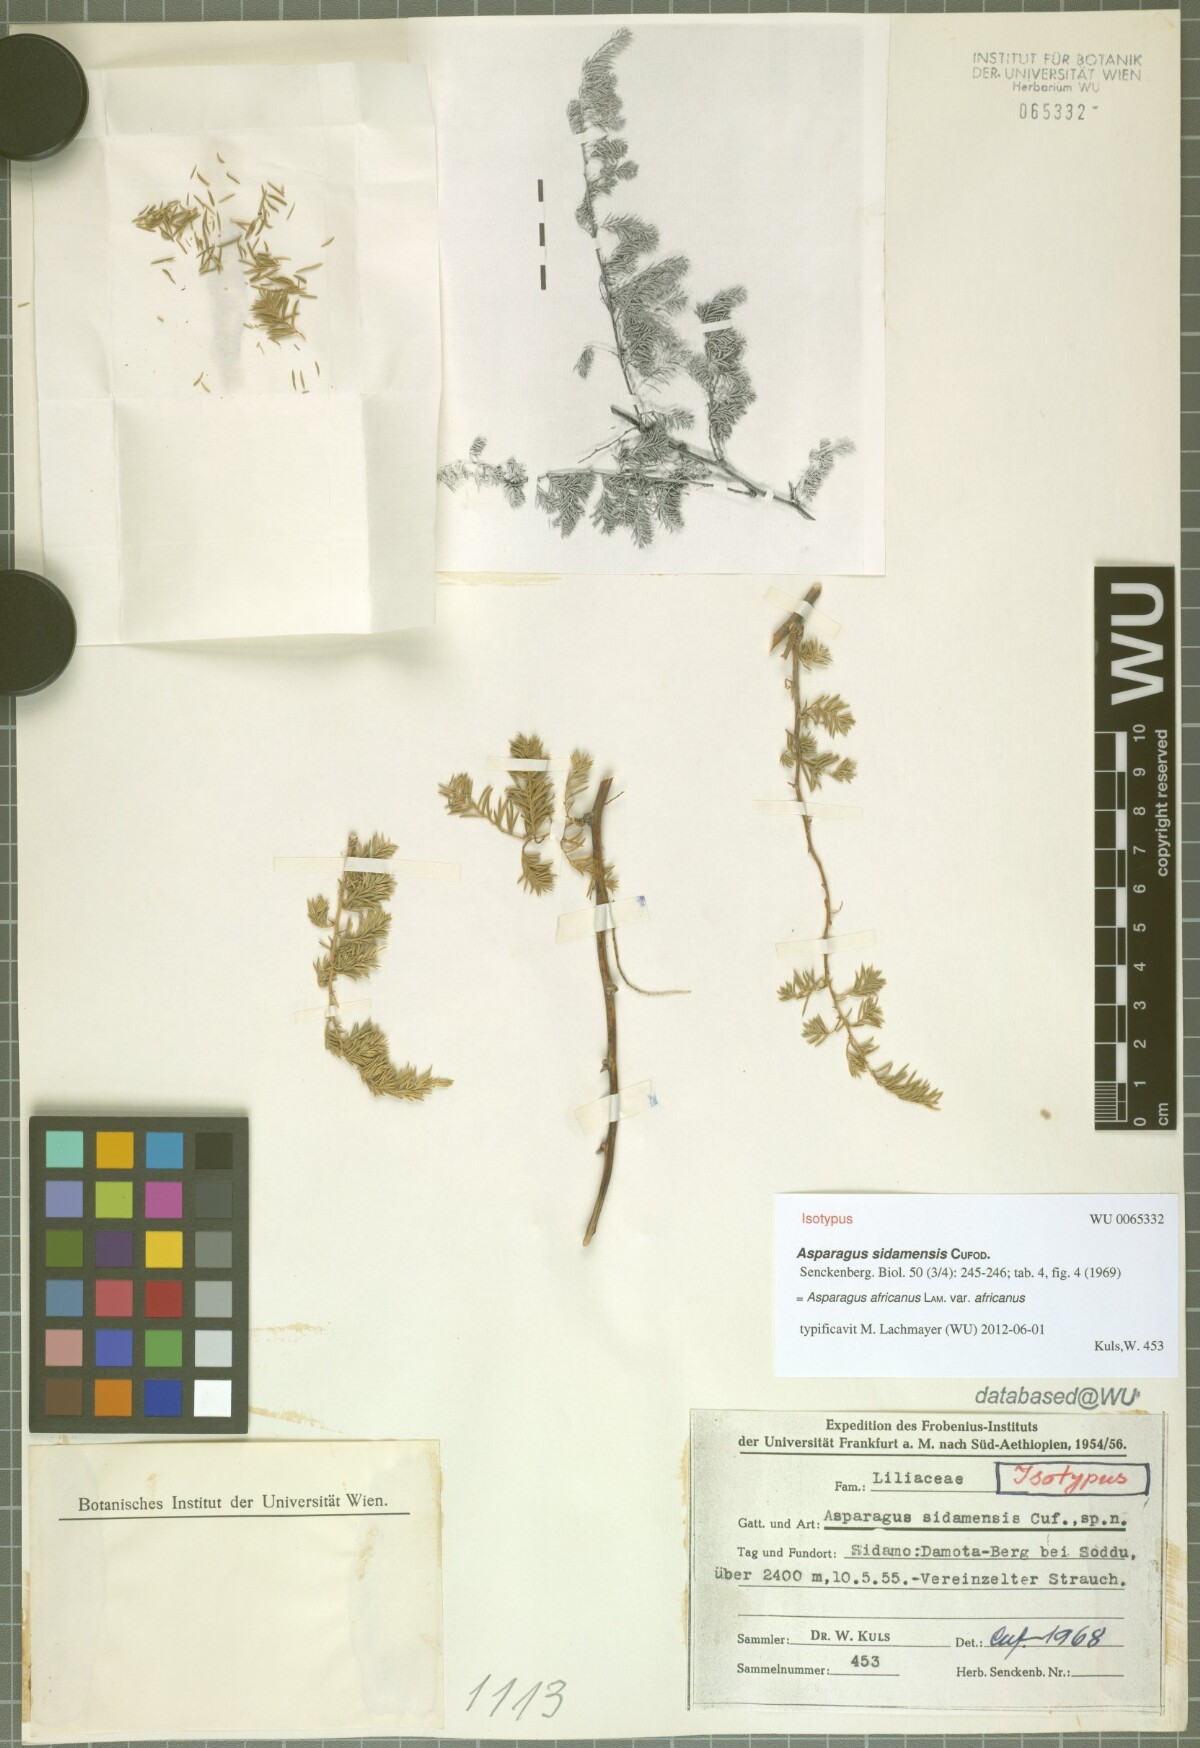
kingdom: Plantae
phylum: Tracheophyta
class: Liliopsida
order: Asparagales
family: Asparagaceae
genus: Asparagus
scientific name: Asparagus africanus
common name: Asparagus-fern
